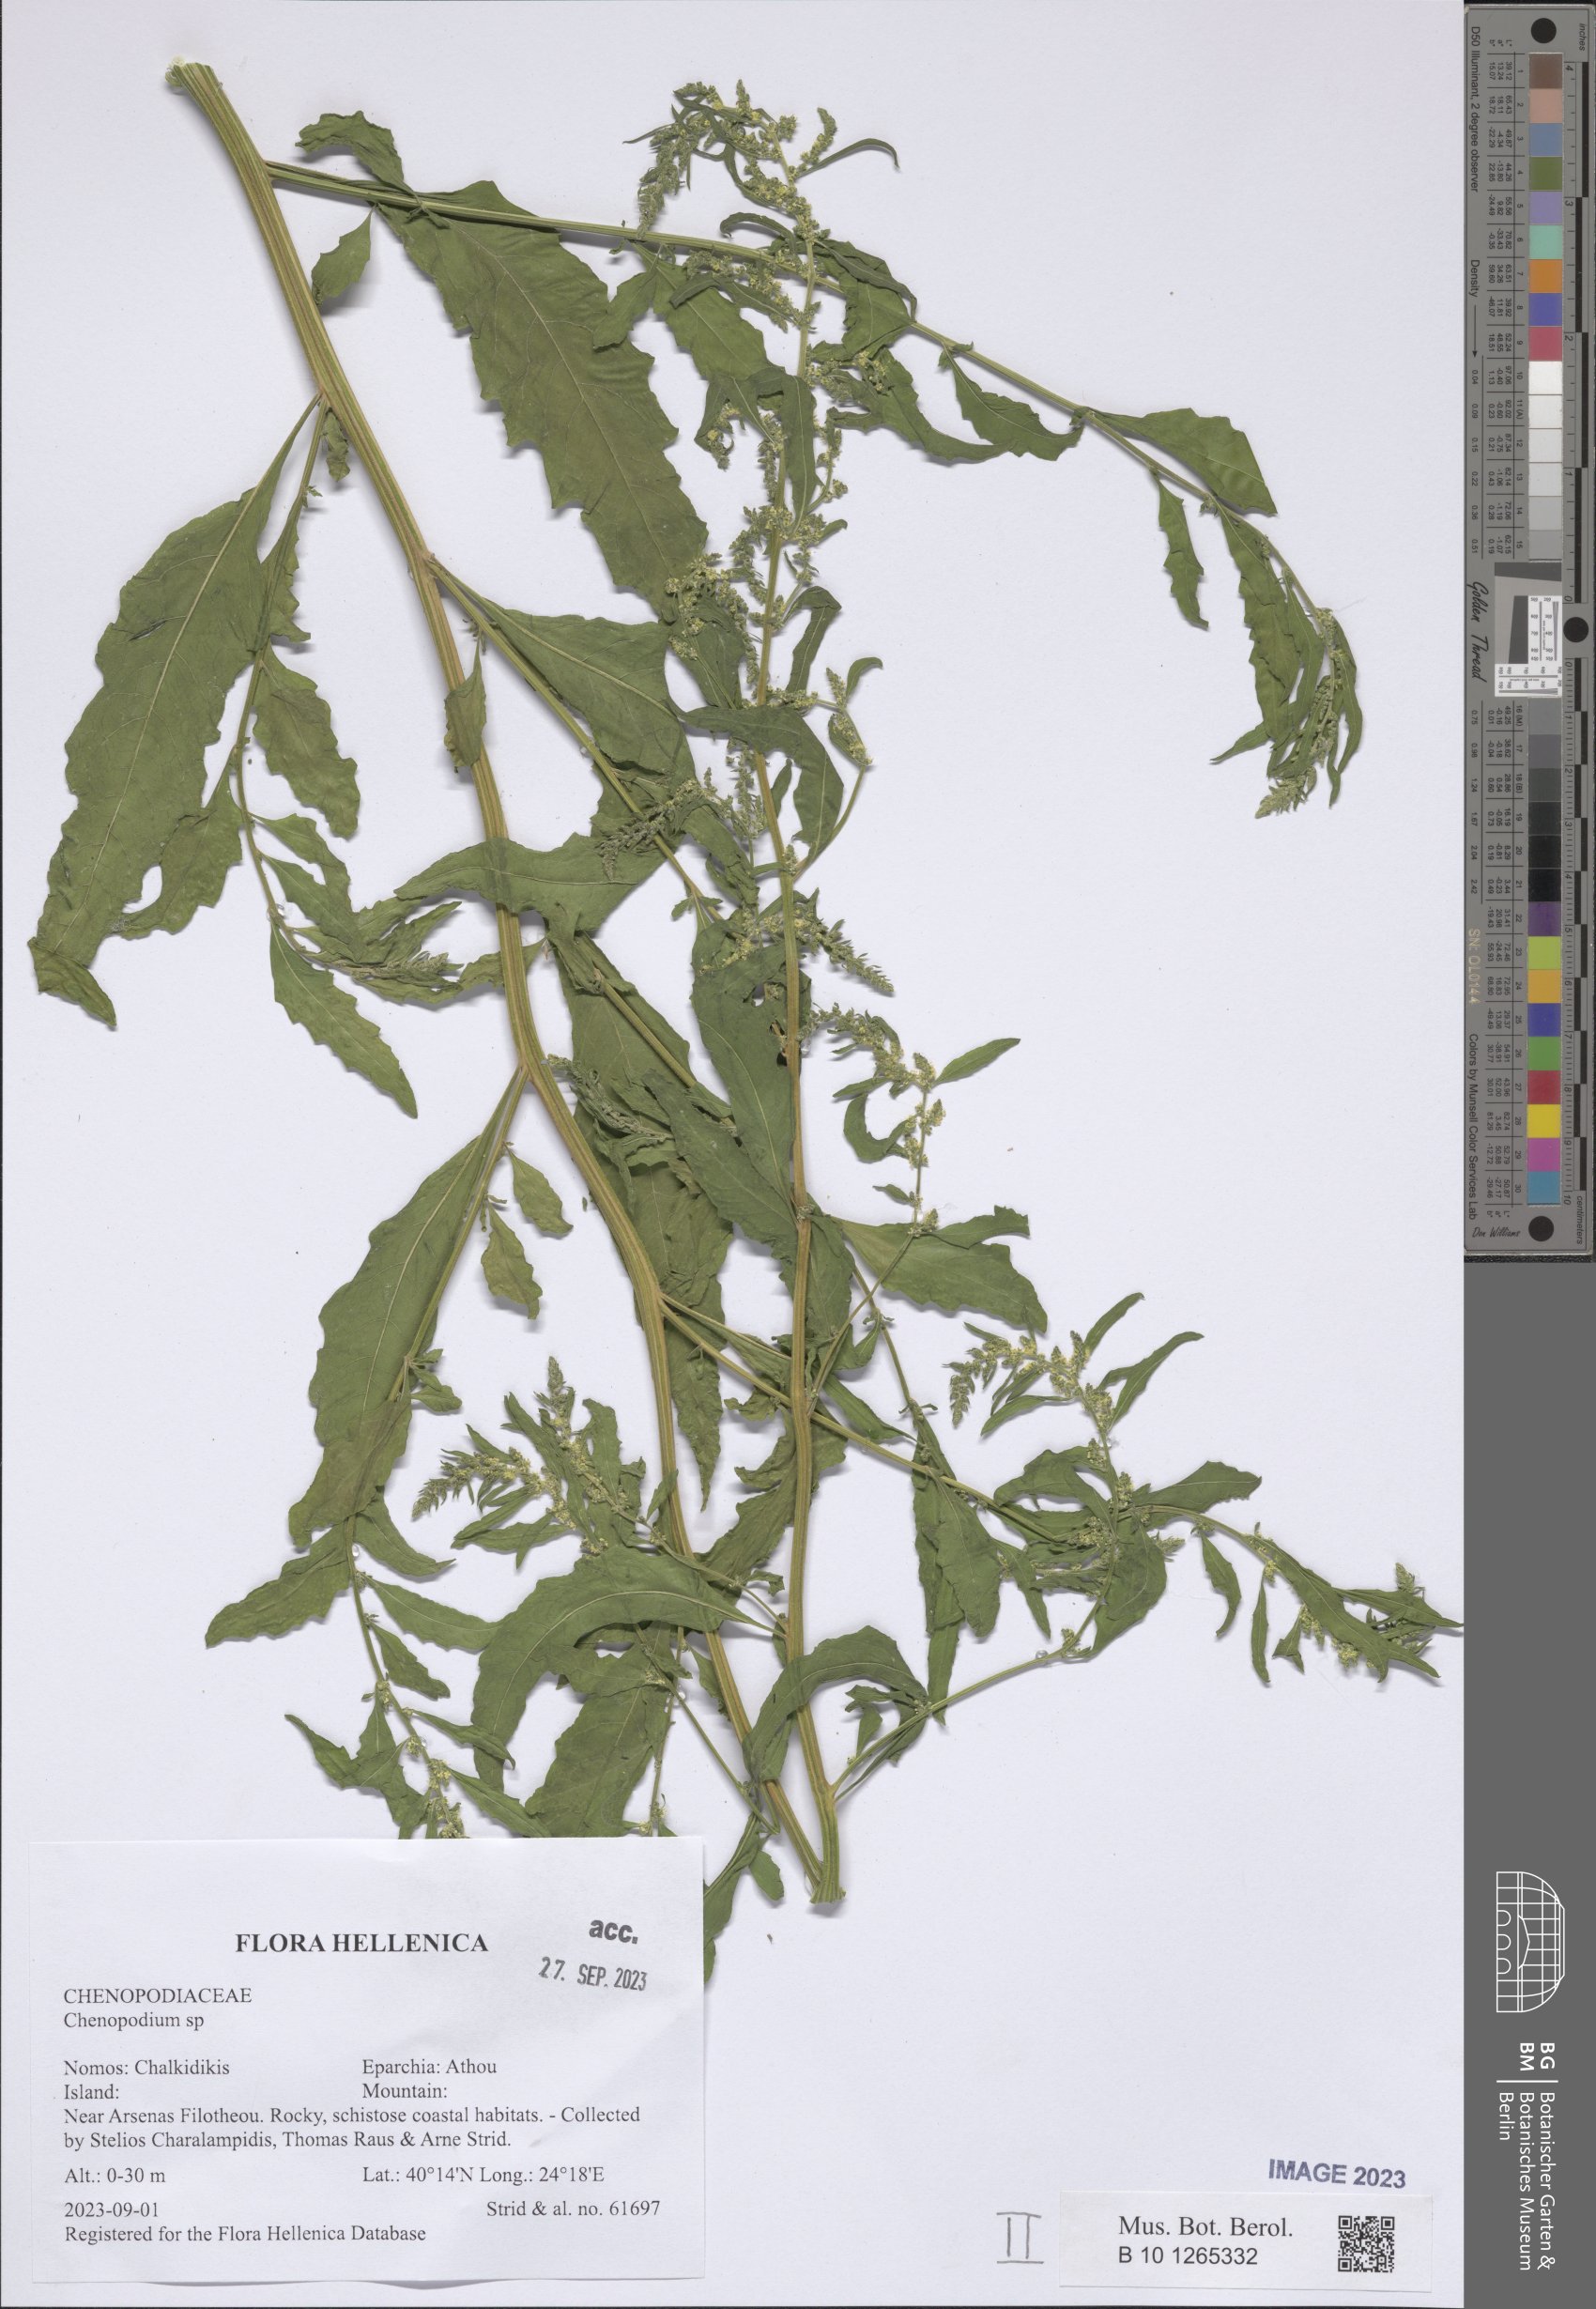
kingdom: Plantae
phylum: Tracheophyta
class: Magnoliopsida
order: Caryophyllales
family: Amaranthaceae
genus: Chenopodium
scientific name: Chenopodium
